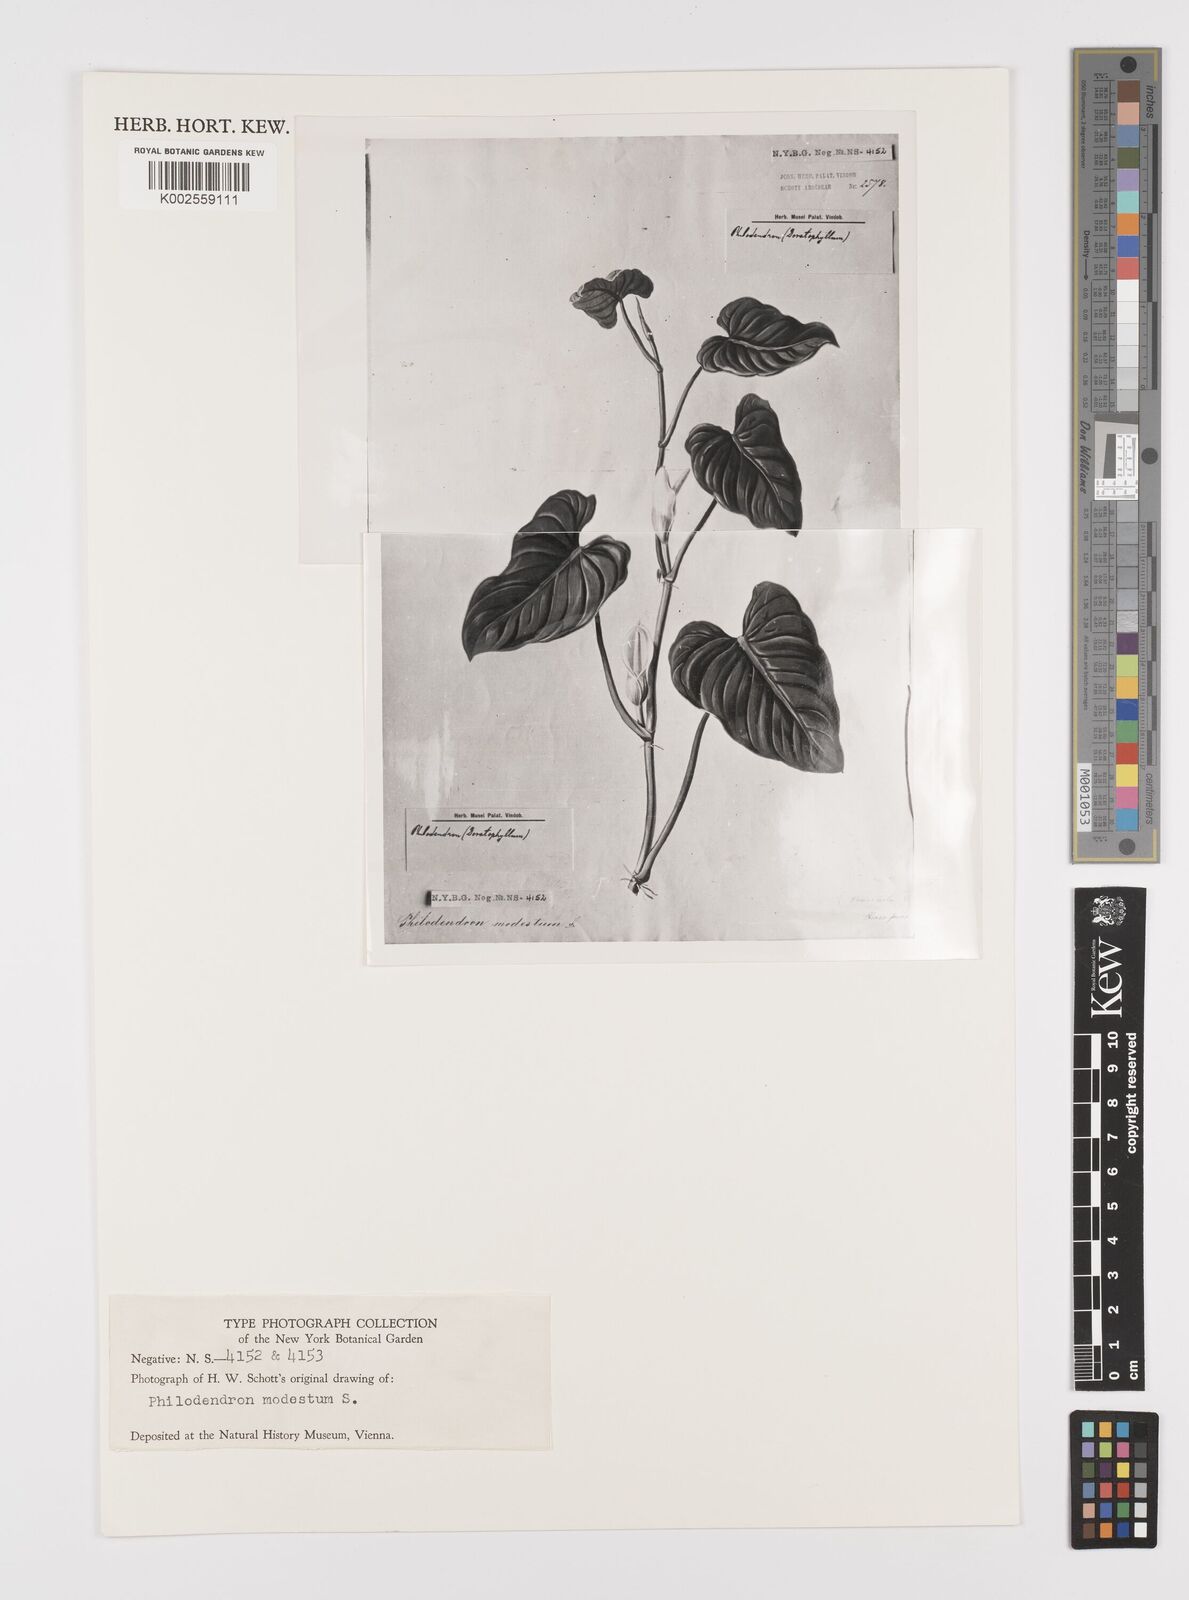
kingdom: Plantae
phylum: Tracheophyta
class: Liliopsida
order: Alismatales
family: Araceae
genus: Philodendron
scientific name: Philodendron modestum
